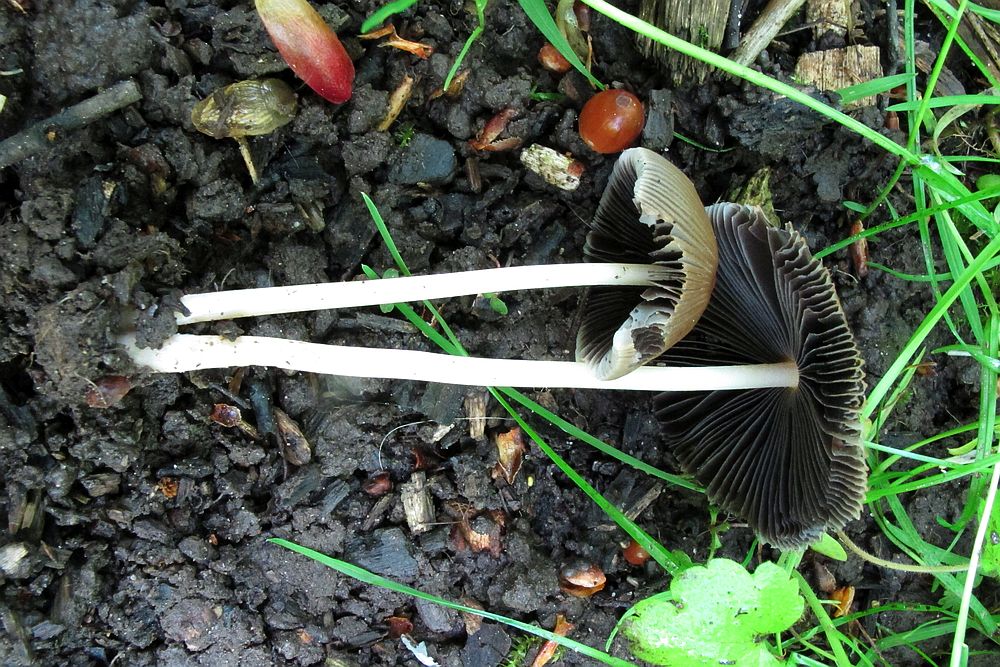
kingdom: Fungi
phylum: Basidiomycota
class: Agaricomycetes
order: Agaricales
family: Psathyrellaceae
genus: Parasola
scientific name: Parasola auricoma
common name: hansens hjulhat
